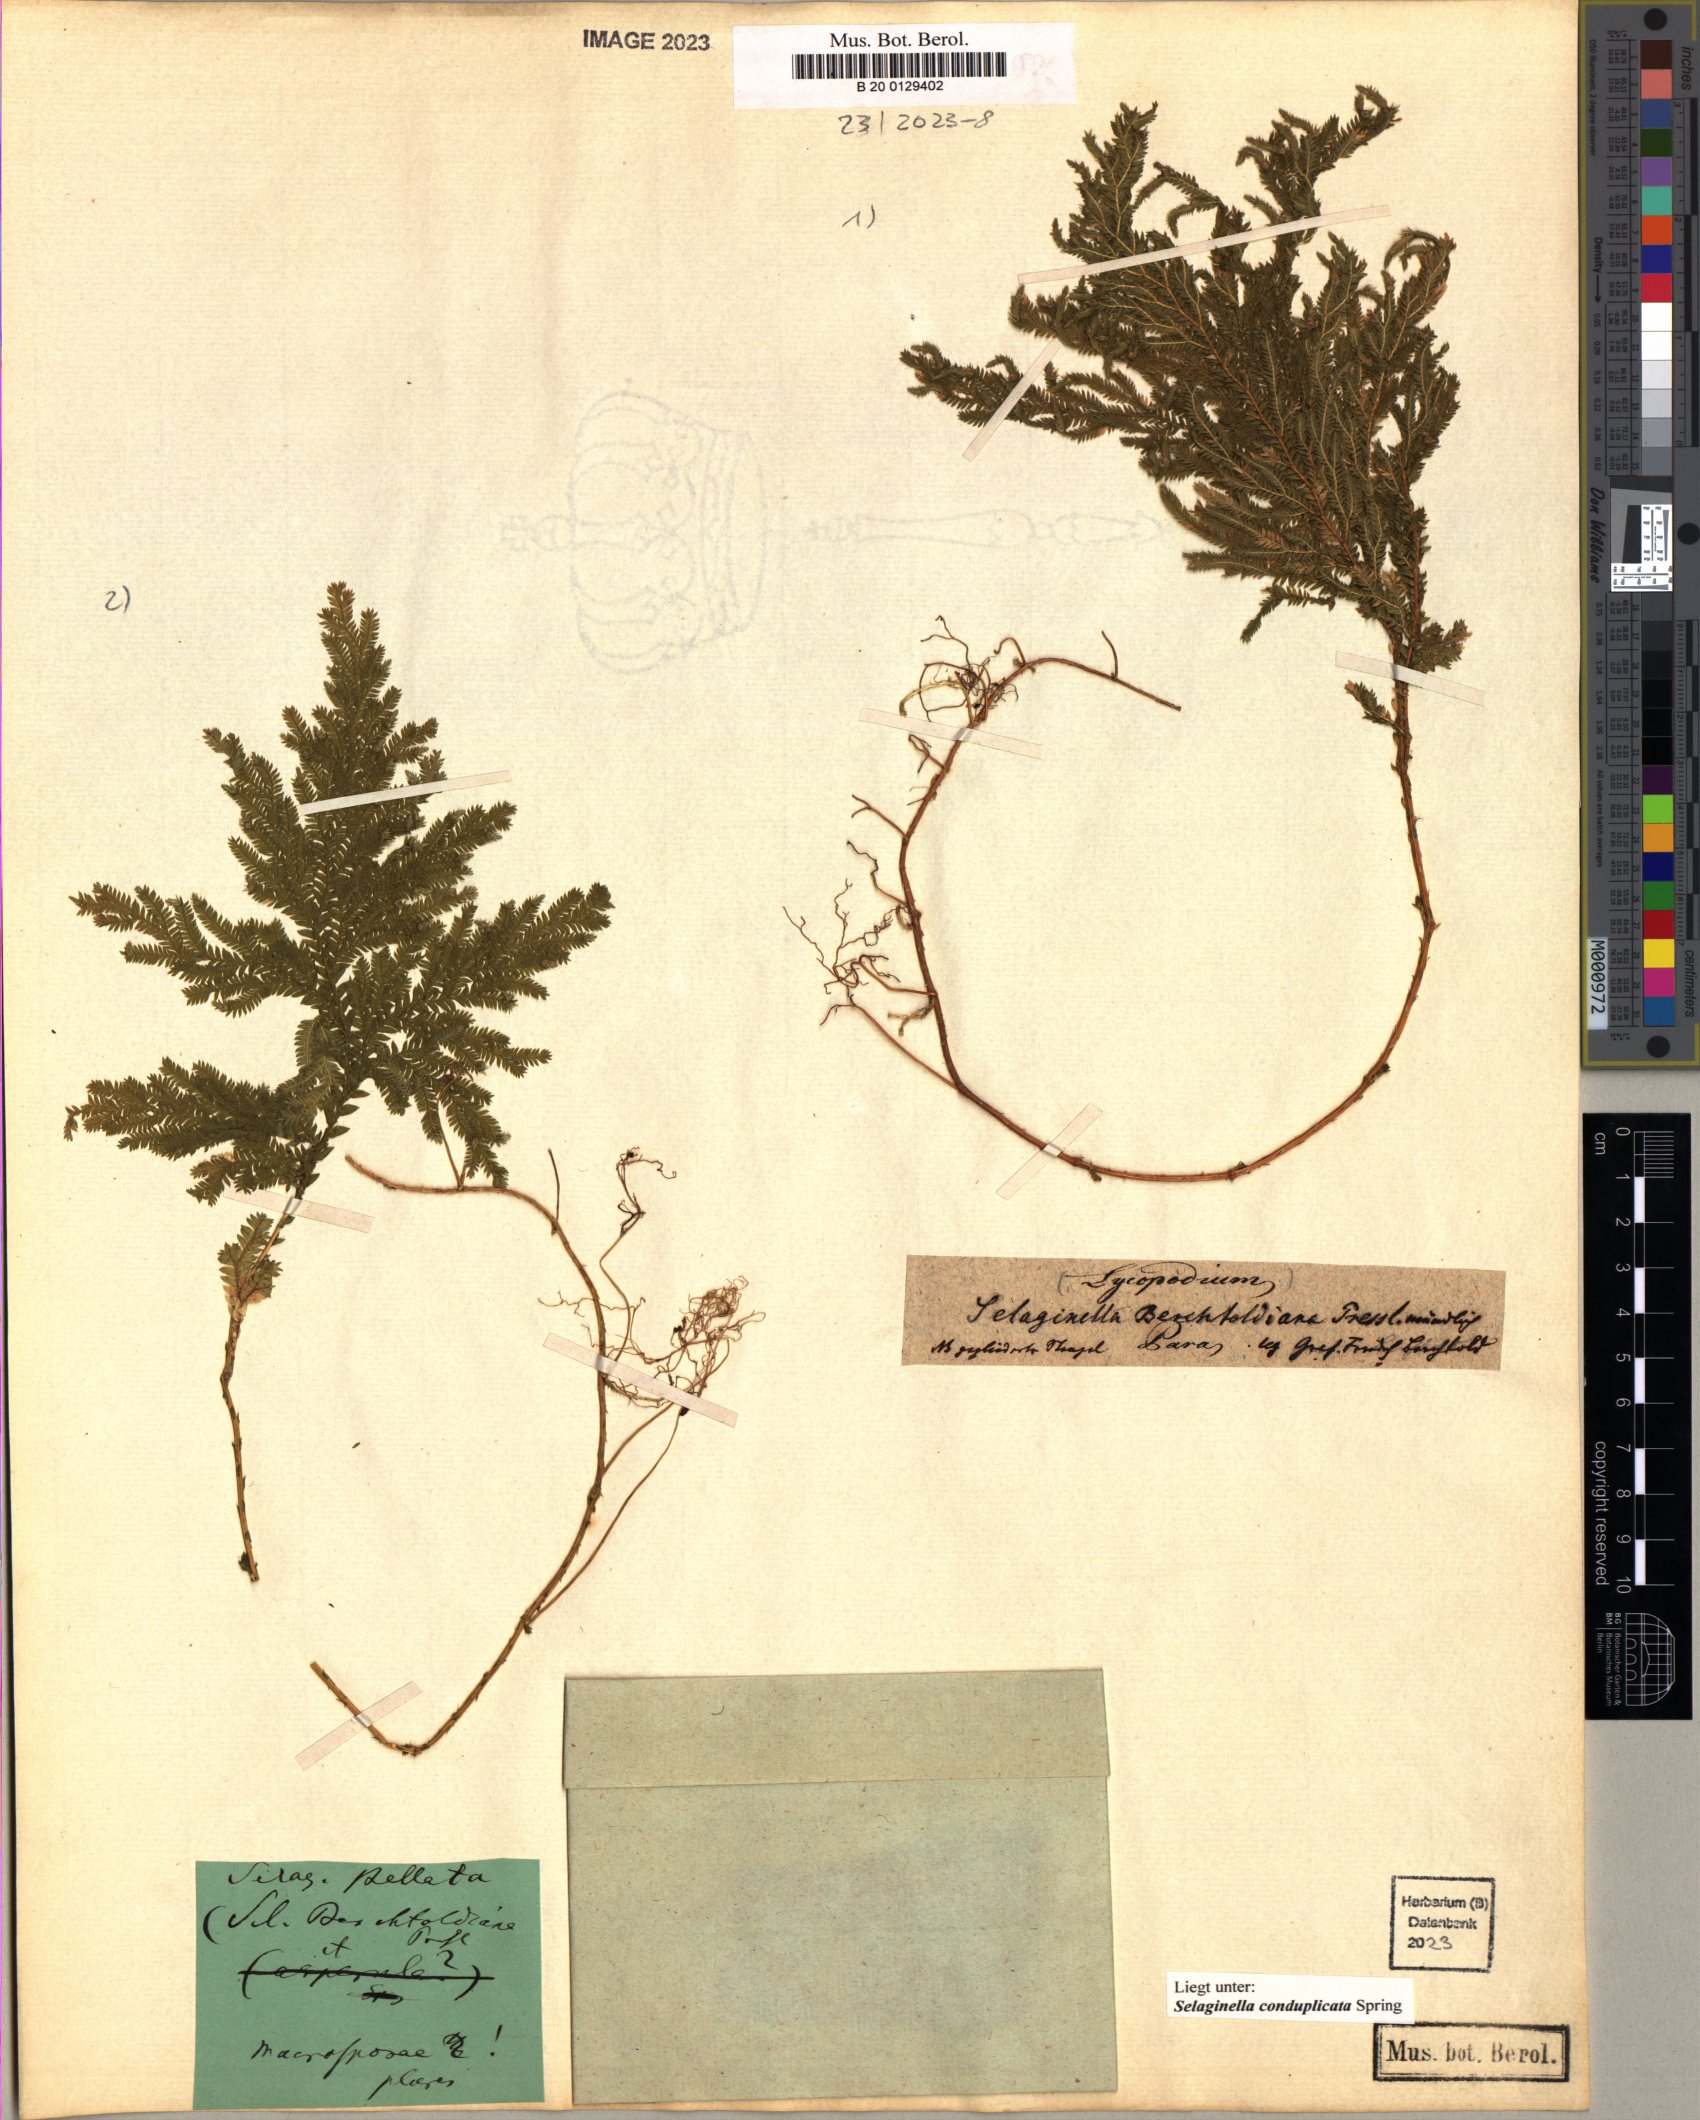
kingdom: Plantae
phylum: Tracheophyta
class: Lycopodiopsida
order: Selaginellales
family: Selaginellaceae
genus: Selaginella
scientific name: Selaginella conduplicata
